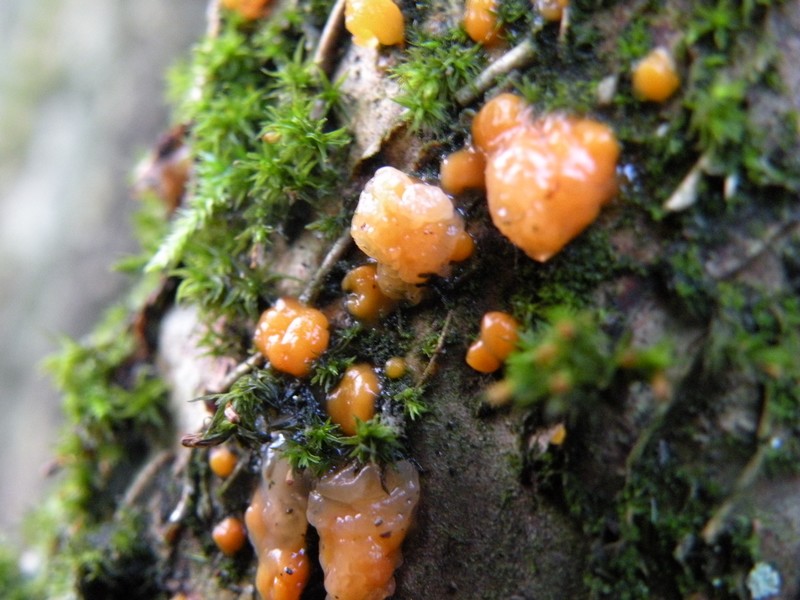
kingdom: Fungi
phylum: Basidiomycota
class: Dacrymycetes
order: Dacrymycetales
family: Dacrymycetaceae
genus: Dacrymyces
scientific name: Dacrymyces stillatus
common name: almindelig tåresvamp
